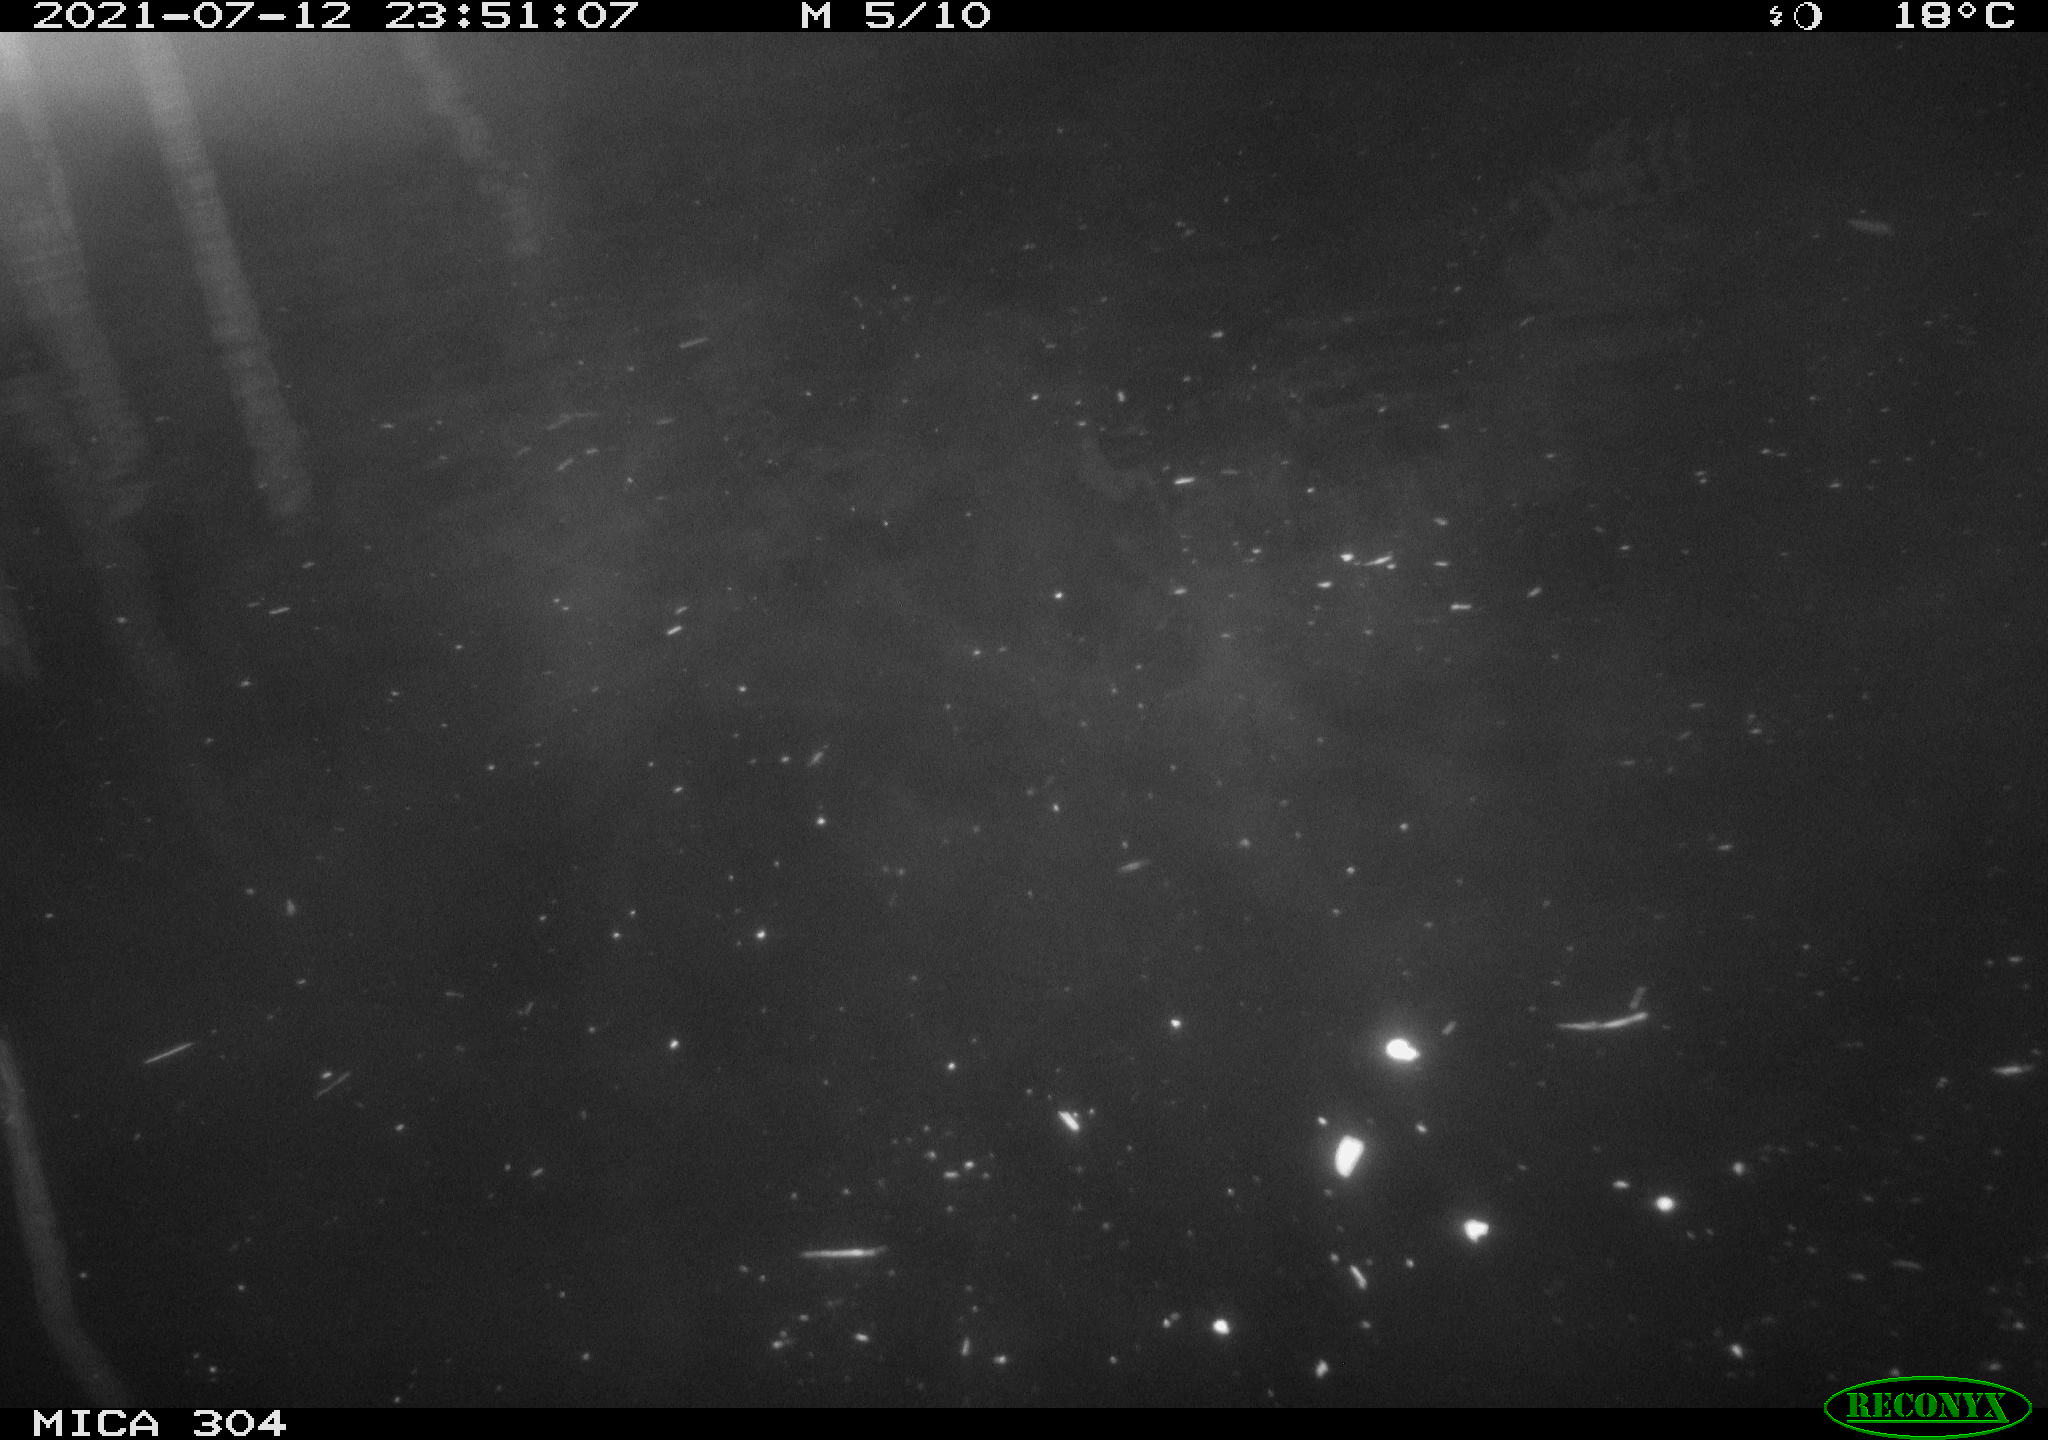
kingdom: Animalia
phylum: Chordata
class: Mammalia
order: Rodentia
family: Muridae
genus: Rattus
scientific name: Rattus norvegicus
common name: Brown rat
